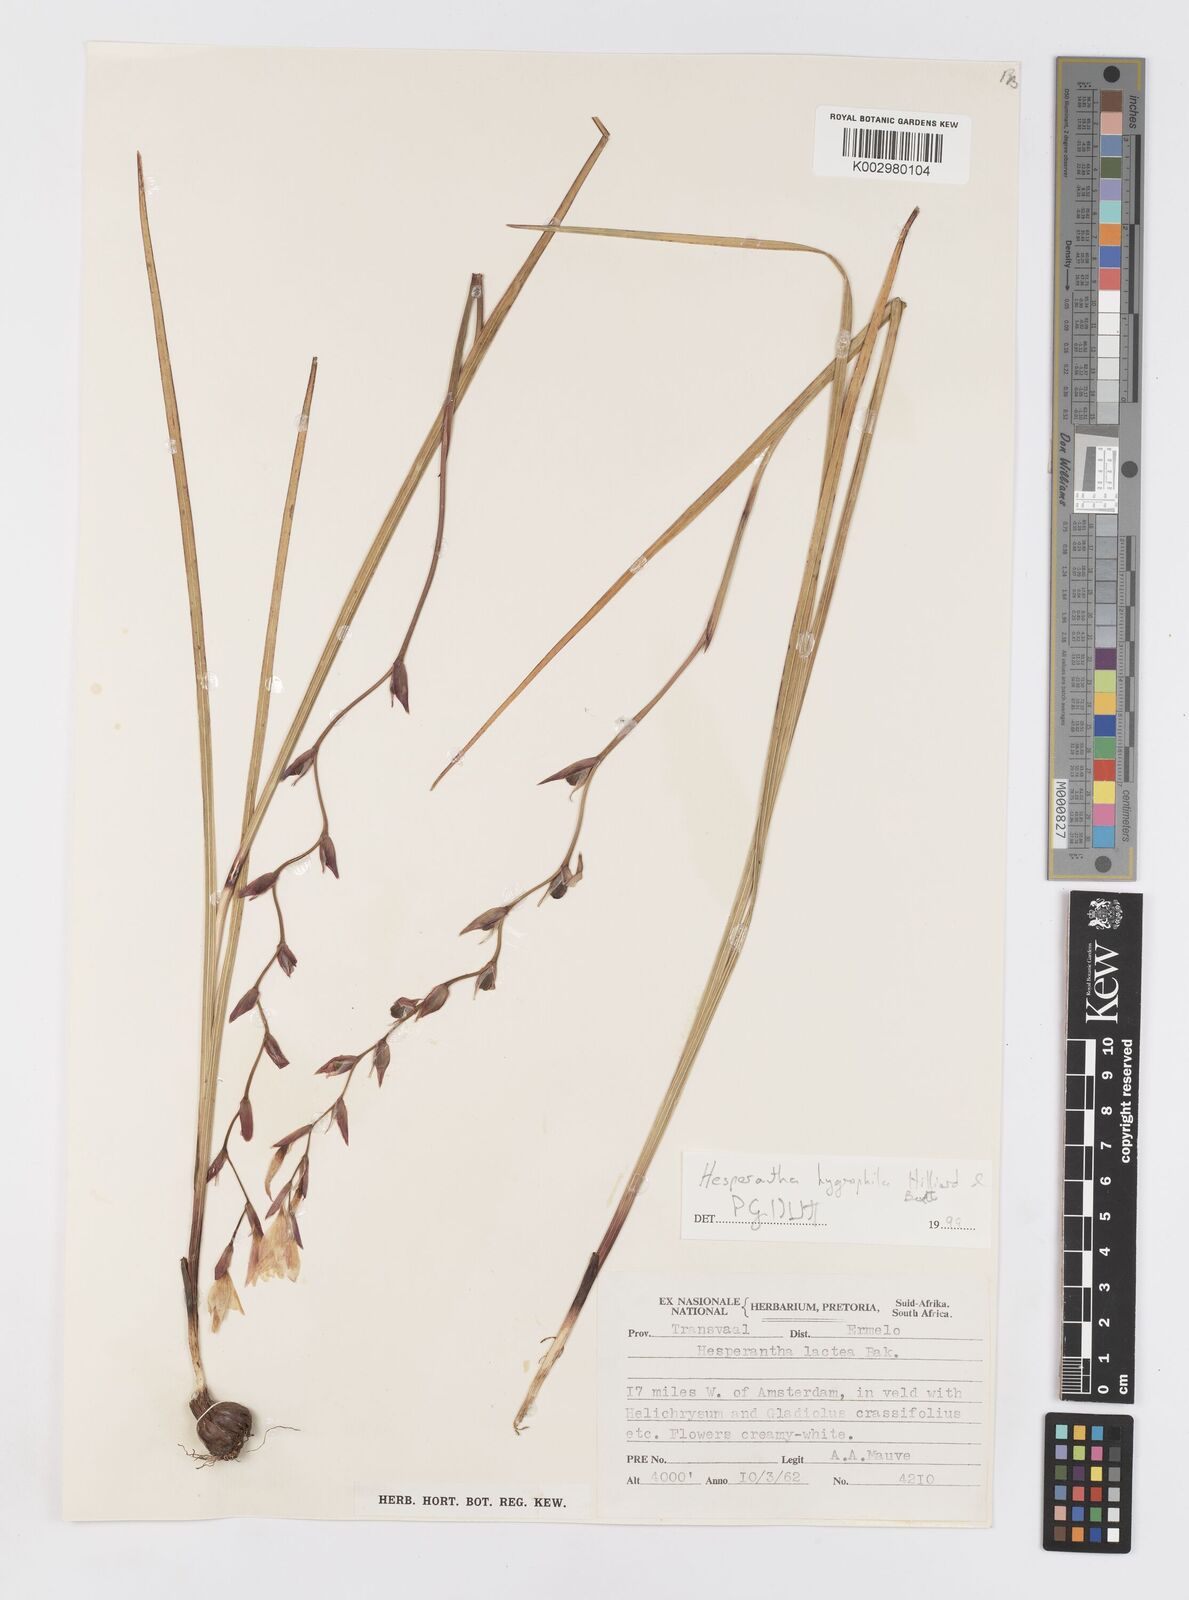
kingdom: Plantae
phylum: Tracheophyta
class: Liliopsida
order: Asparagales
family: Iridaceae
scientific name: Iridaceae
